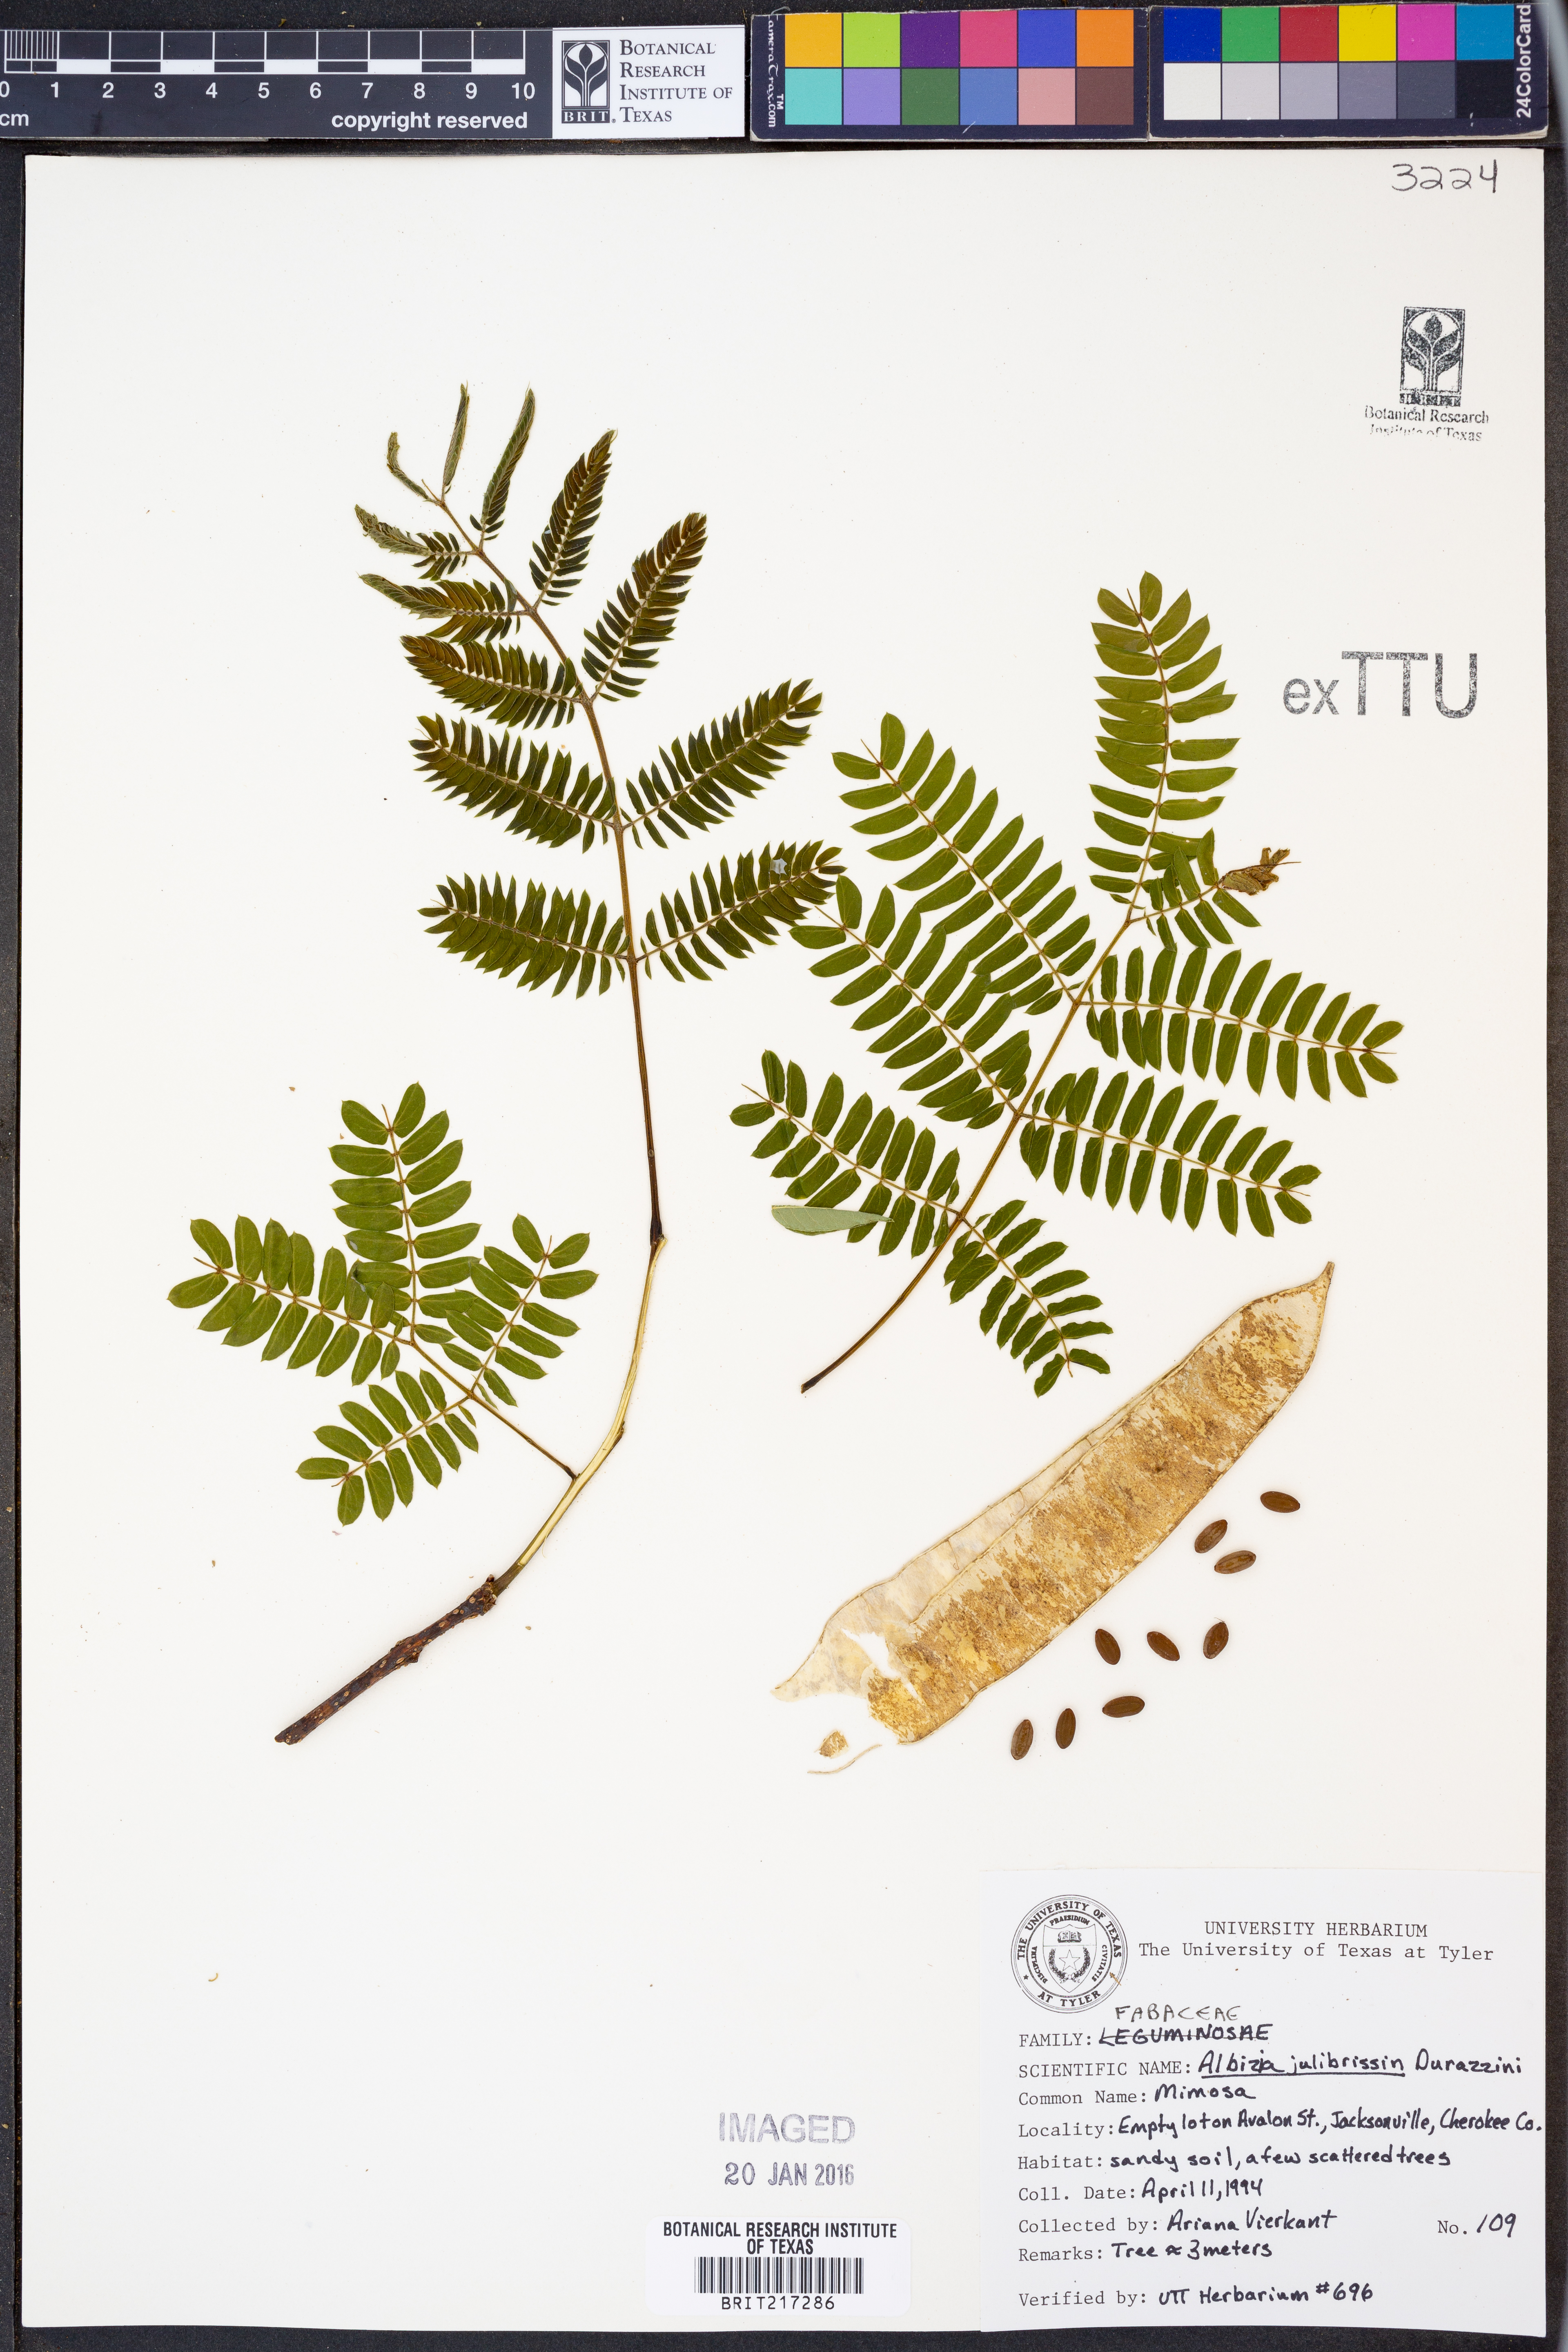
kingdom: Plantae
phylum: Tracheophyta
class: Magnoliopsida
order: Fabales
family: Fabaceae
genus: Albizia
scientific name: Albizia julibrissin
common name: Silktree
